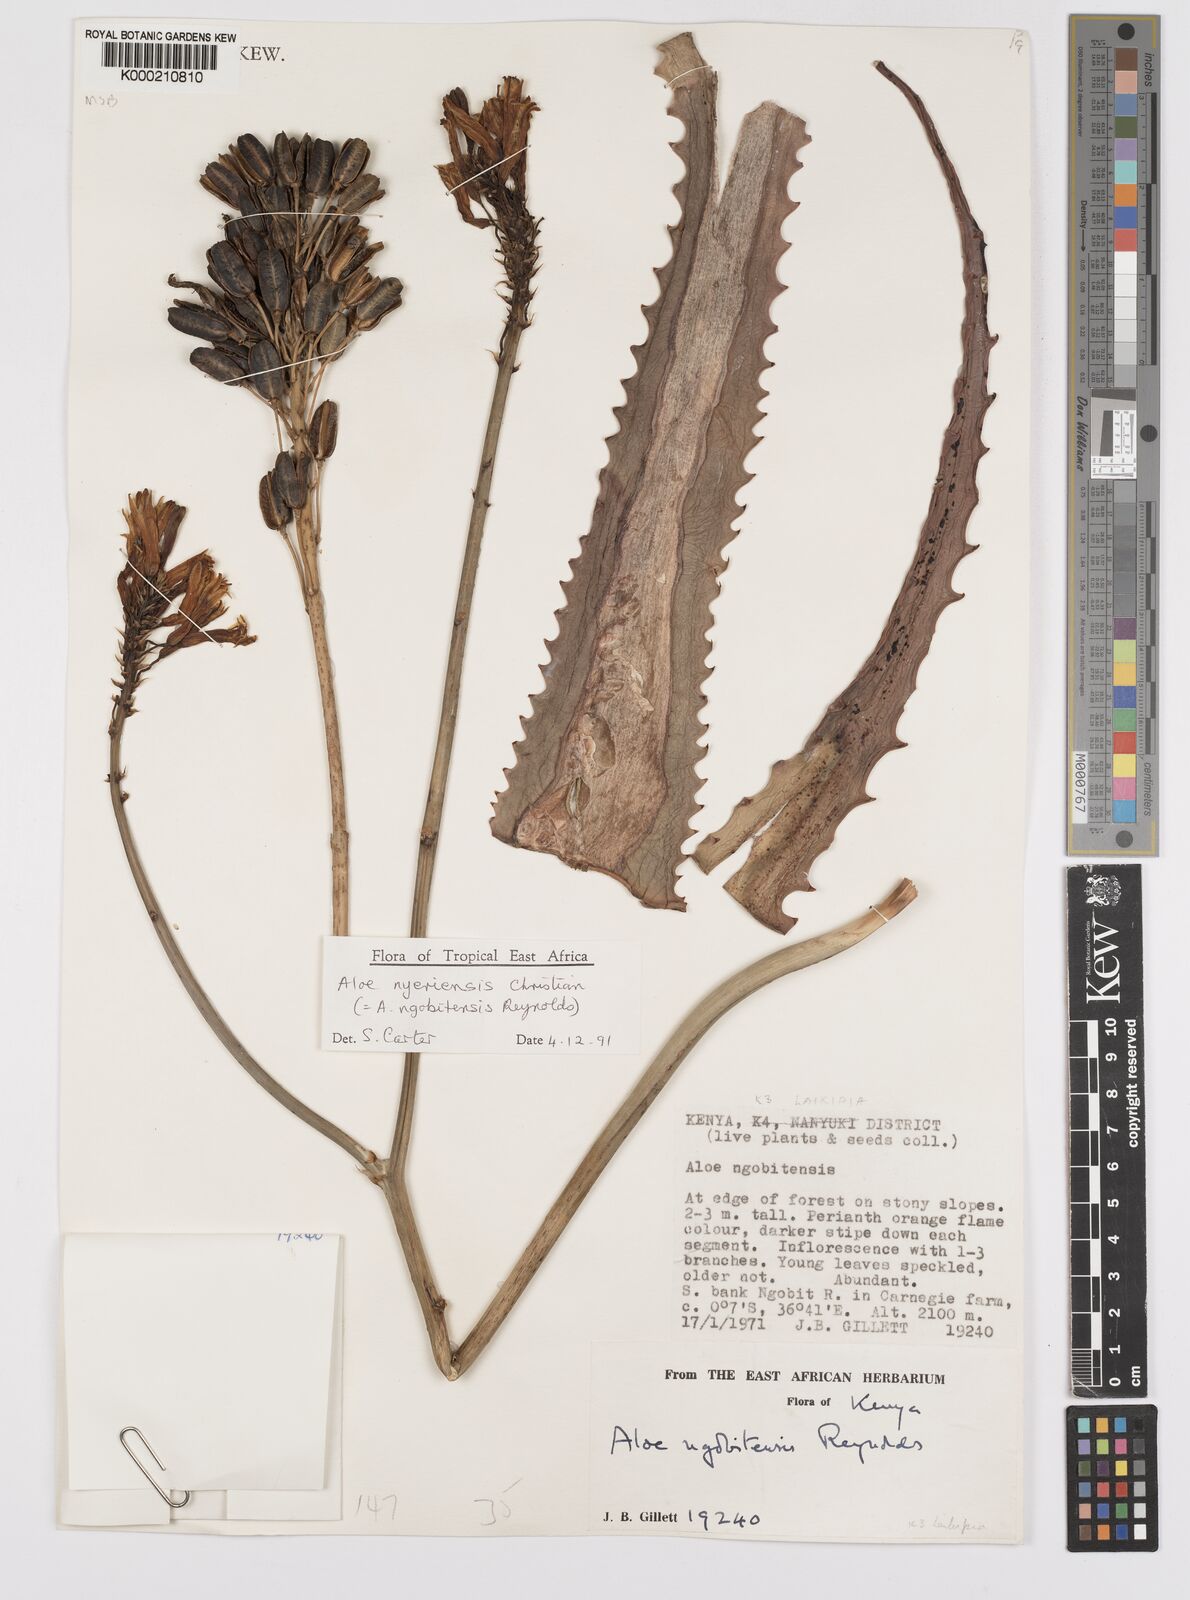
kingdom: Plantae
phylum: Tracheophyta
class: Liliopsida
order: Asparagales
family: Asphodelaceae
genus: Aloe
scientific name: Aloe nyeriensis
